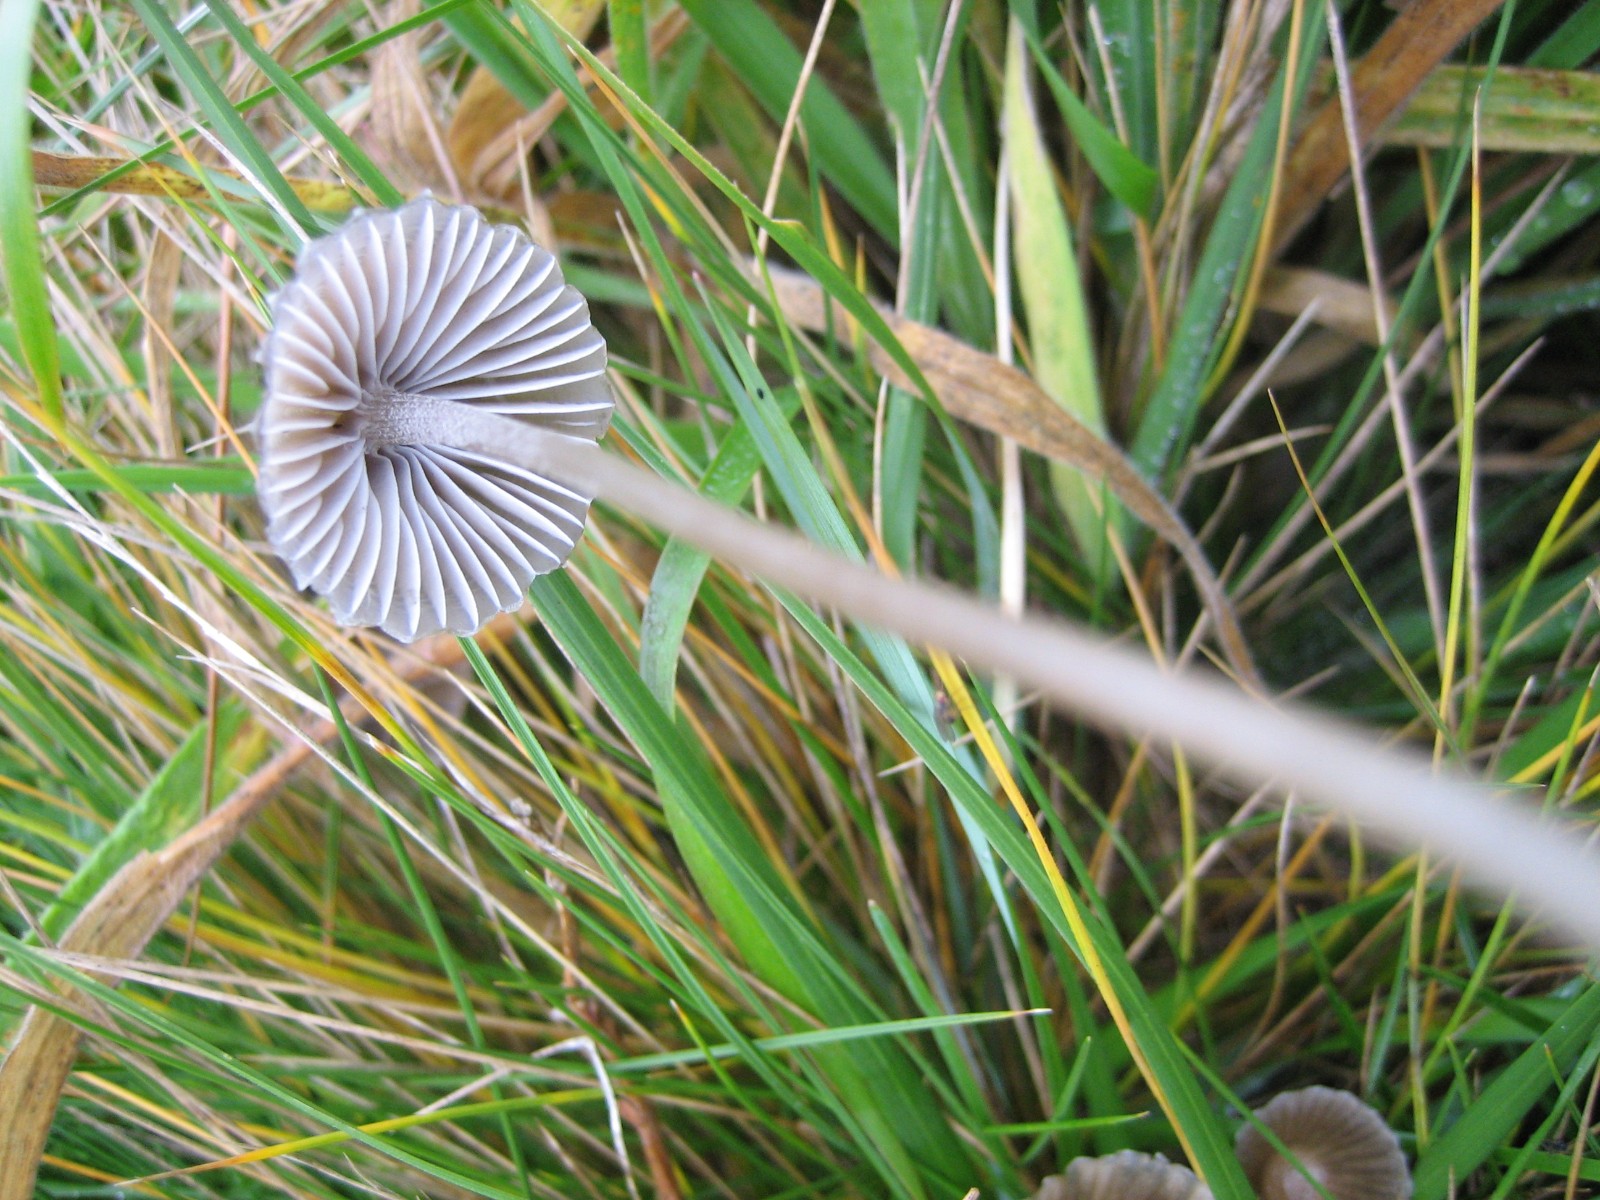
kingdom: Fungi
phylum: Basidiomycota
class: Agaricomycetes
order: Agaricales
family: Mycenaceae
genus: Mycena
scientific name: Mycena leptocephala
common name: klor-huesvamp
